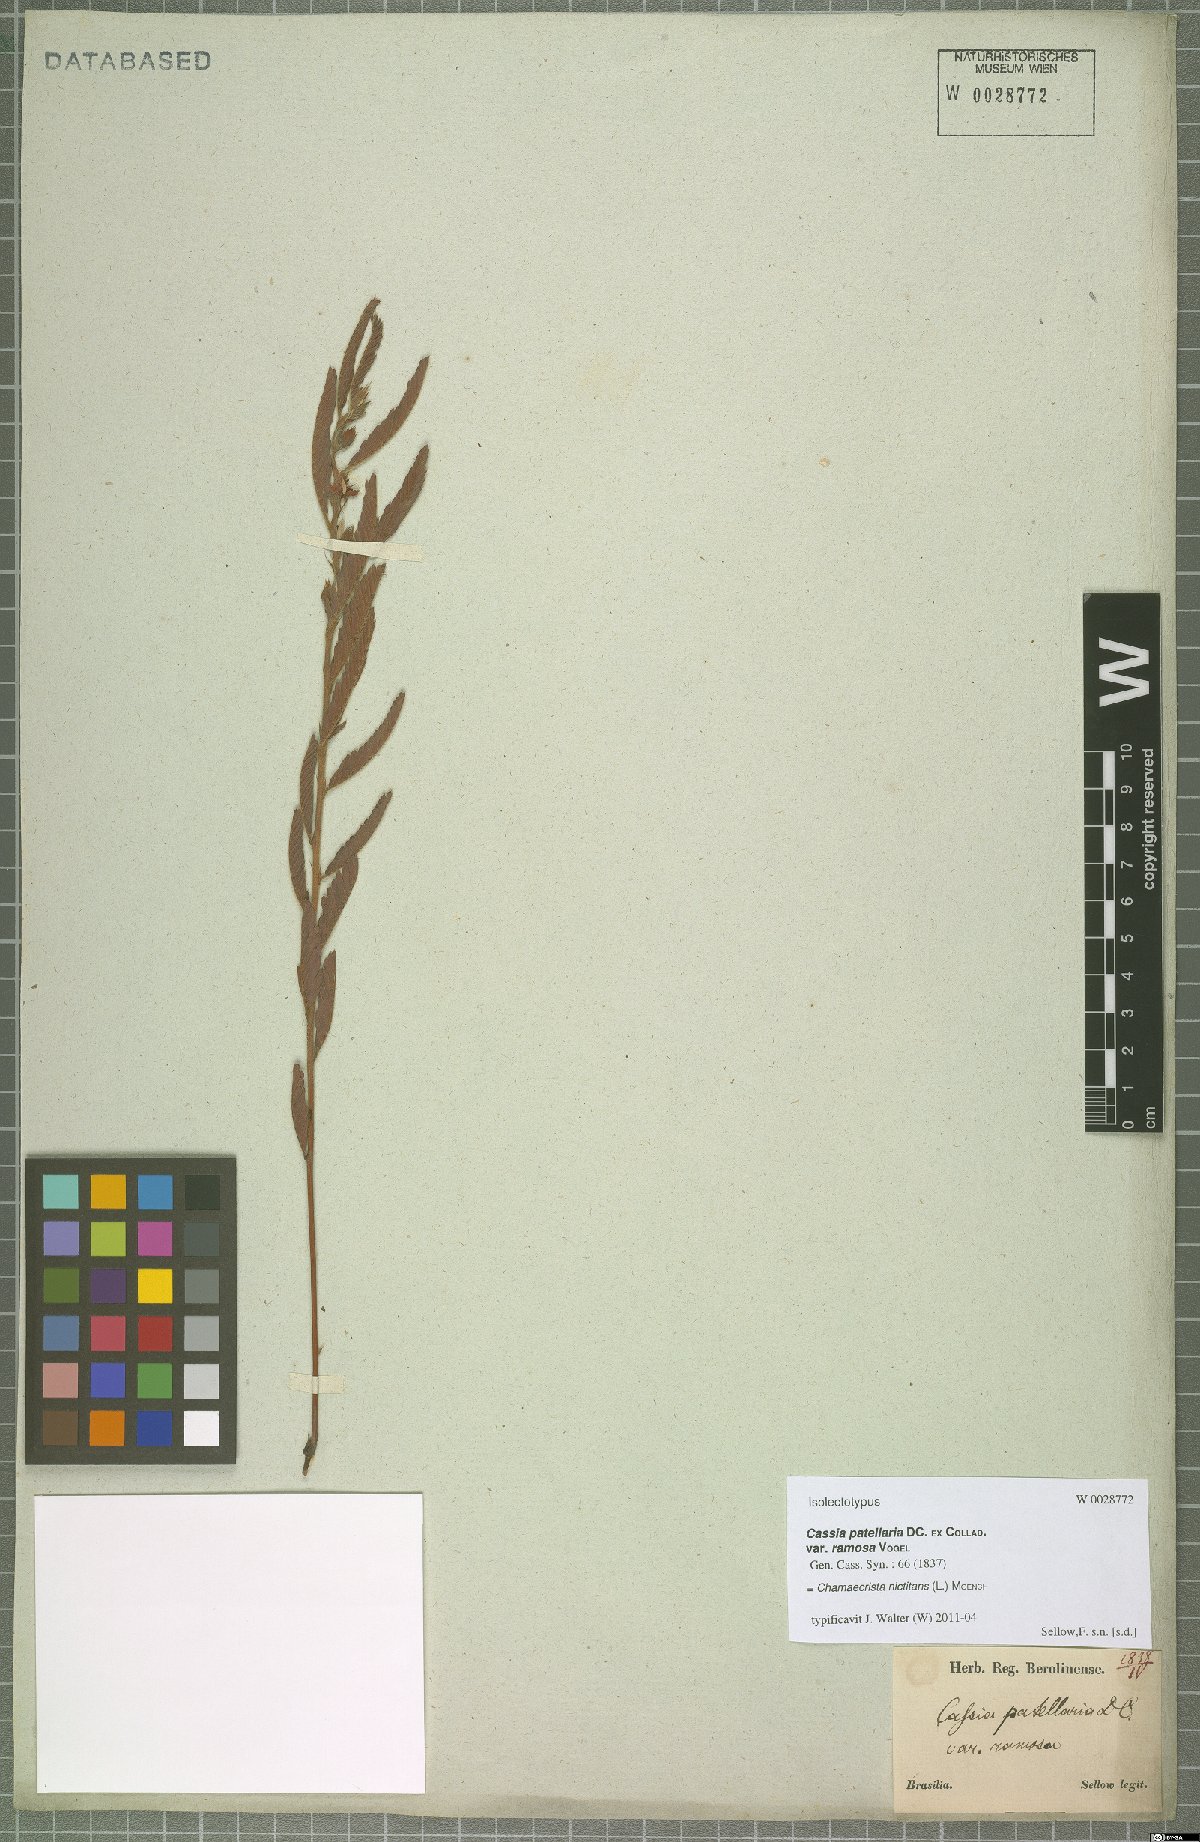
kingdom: Plantae
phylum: Tracheophyta
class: Magnoliopsida
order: Fabales
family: Fabaceae
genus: Chamaecrista
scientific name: Chamaecrista nictitans
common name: Sensitive cassia
